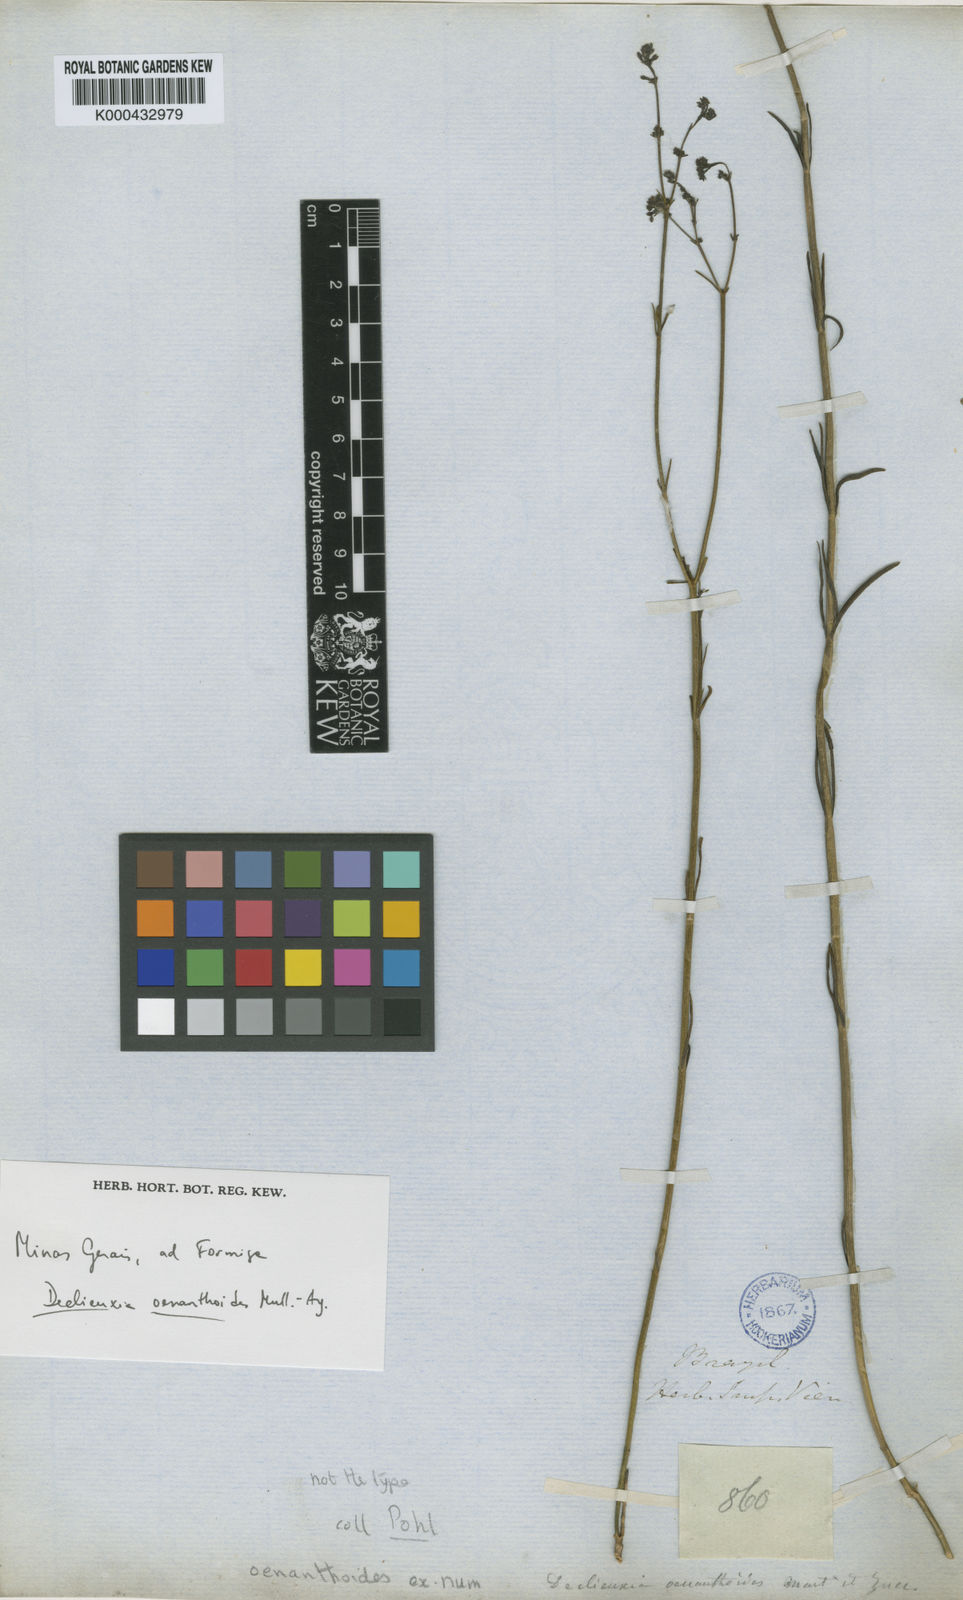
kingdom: Plantae
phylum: Tracheophyta
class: Magnoliopsida
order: Gentianales
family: Rubiaceae
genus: Declieuxia
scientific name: Declieuxia
